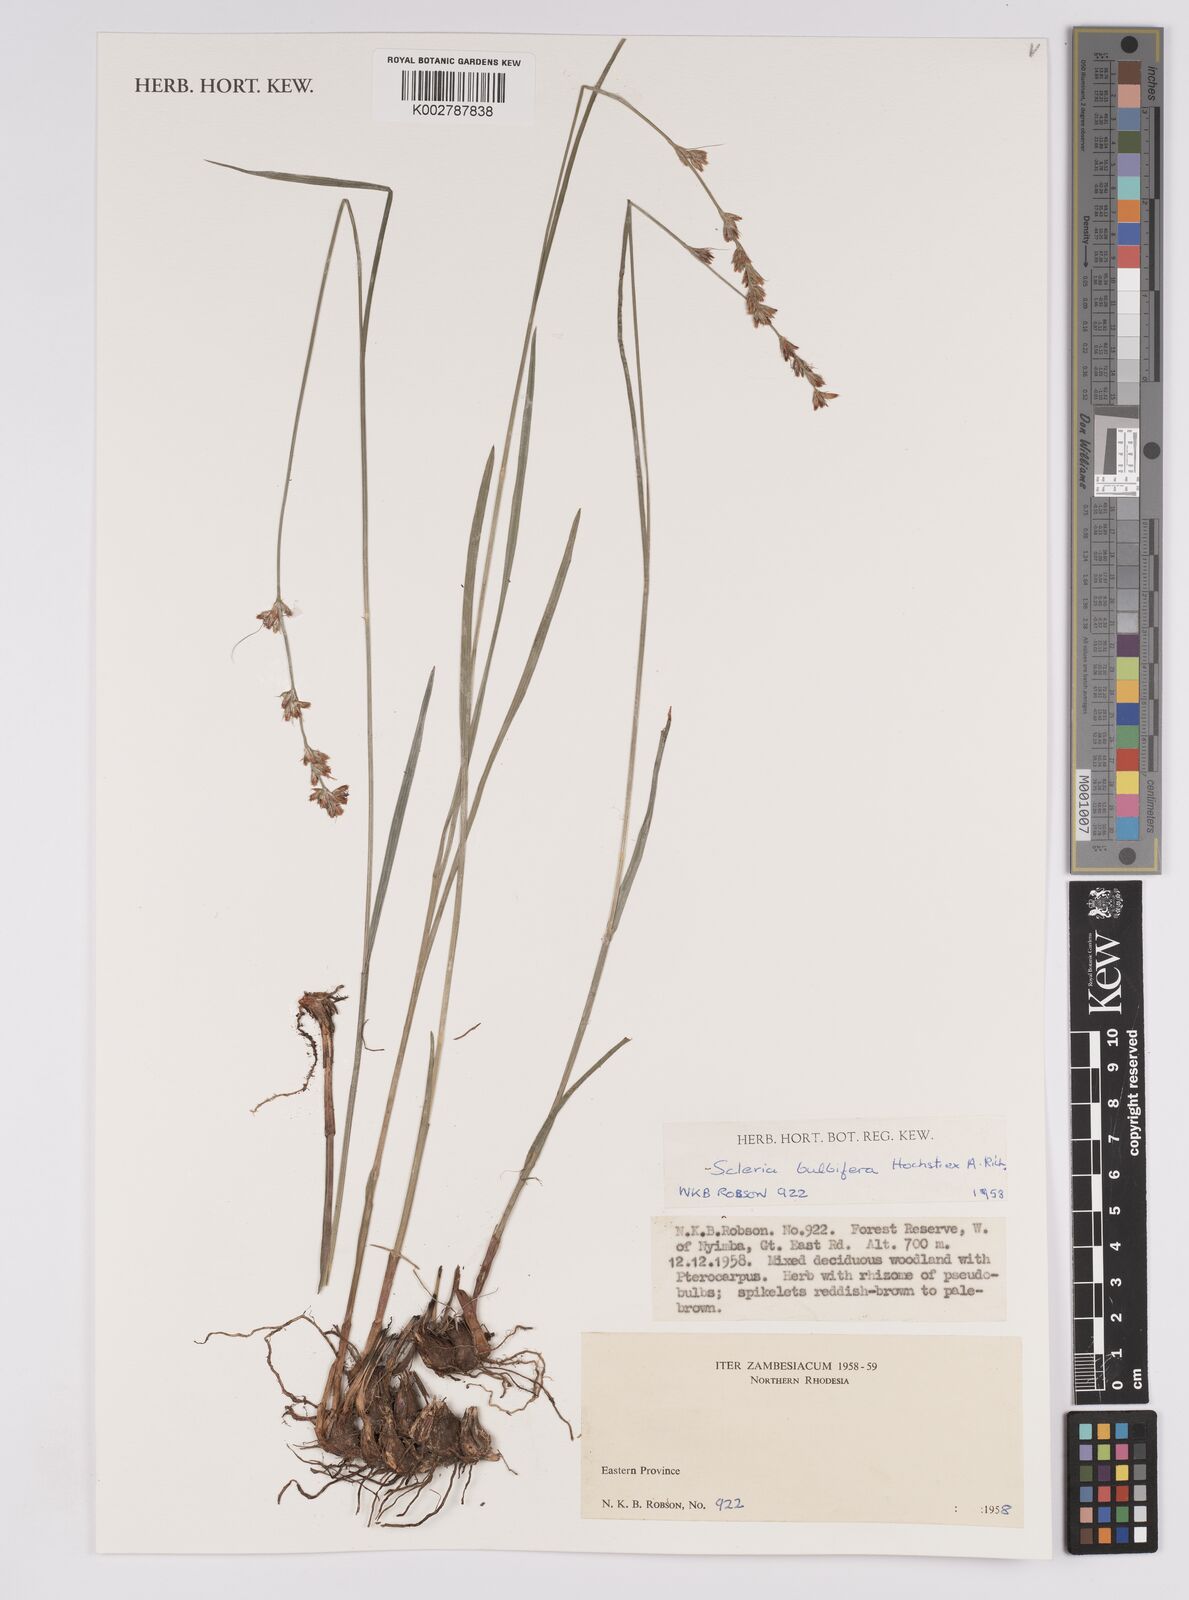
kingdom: Plantae
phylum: Tracheophyta
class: Liliopsida
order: Poales
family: Cyperaceae
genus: Scleria
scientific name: Scleria bulbifera
